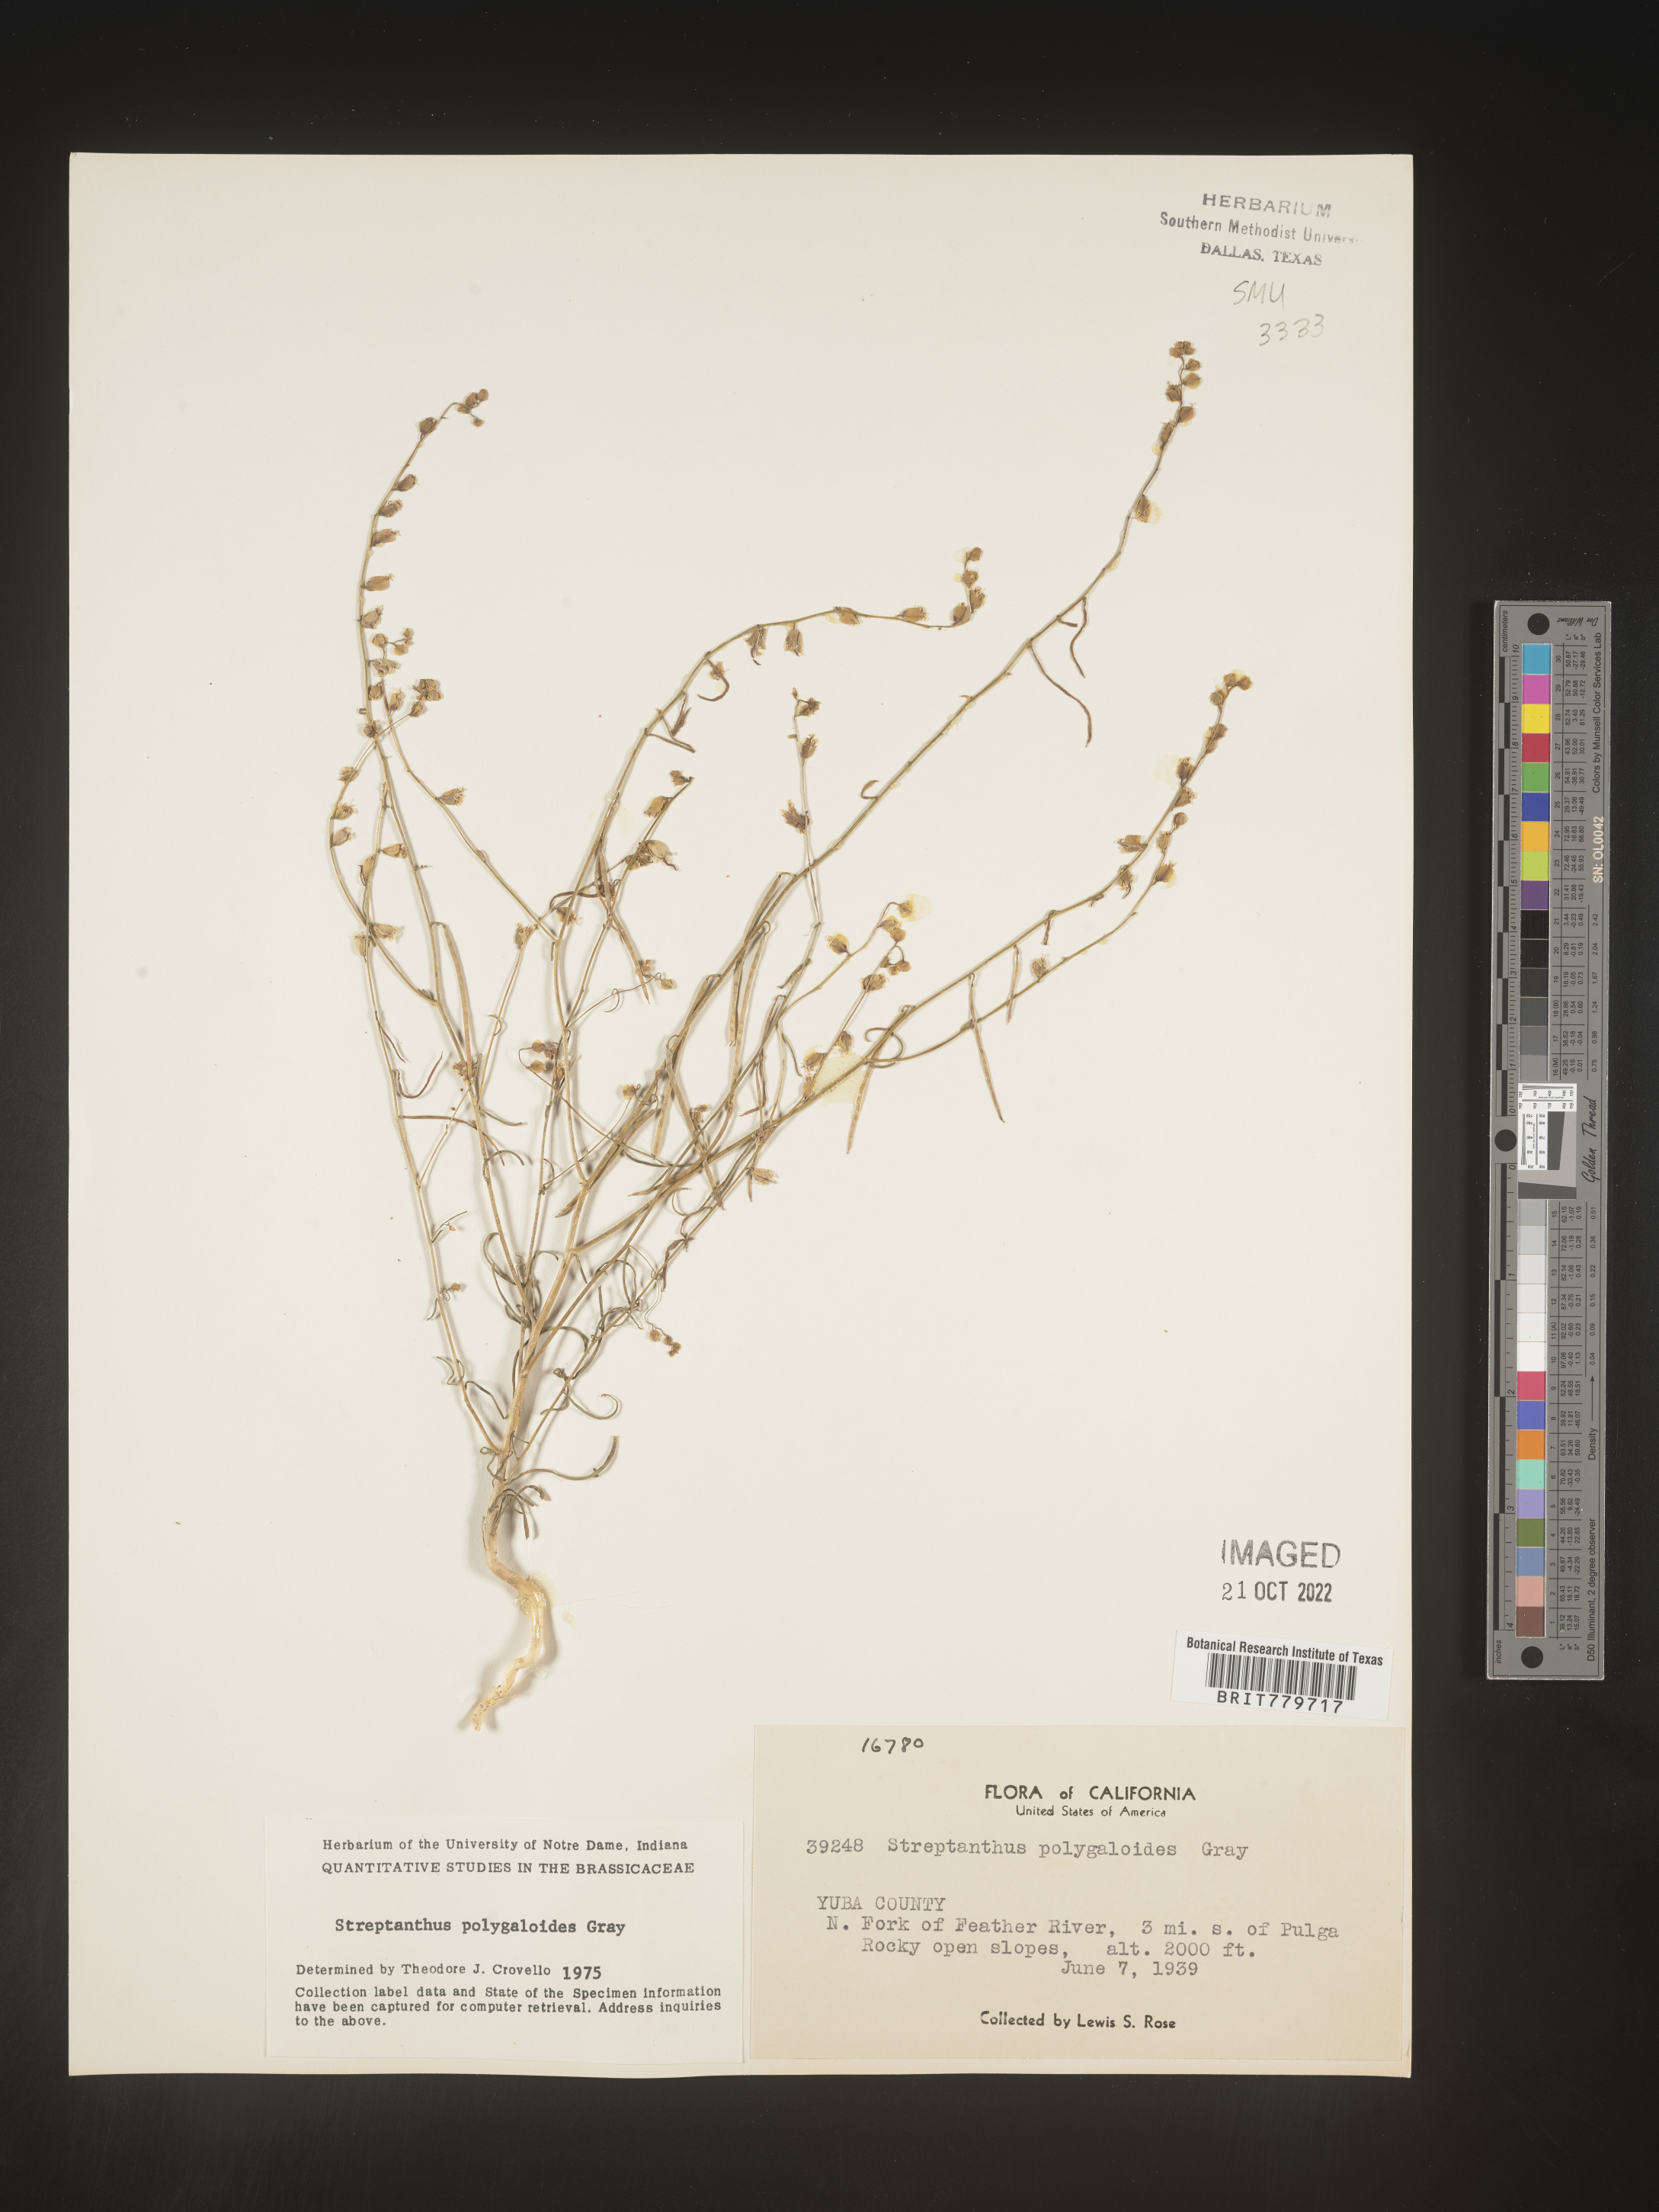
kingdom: Plantae
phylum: Tracheophyta
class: Magnoliopsida
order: Brassicales
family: Brassicaceae
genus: Streptanthus
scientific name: Streptanthus
